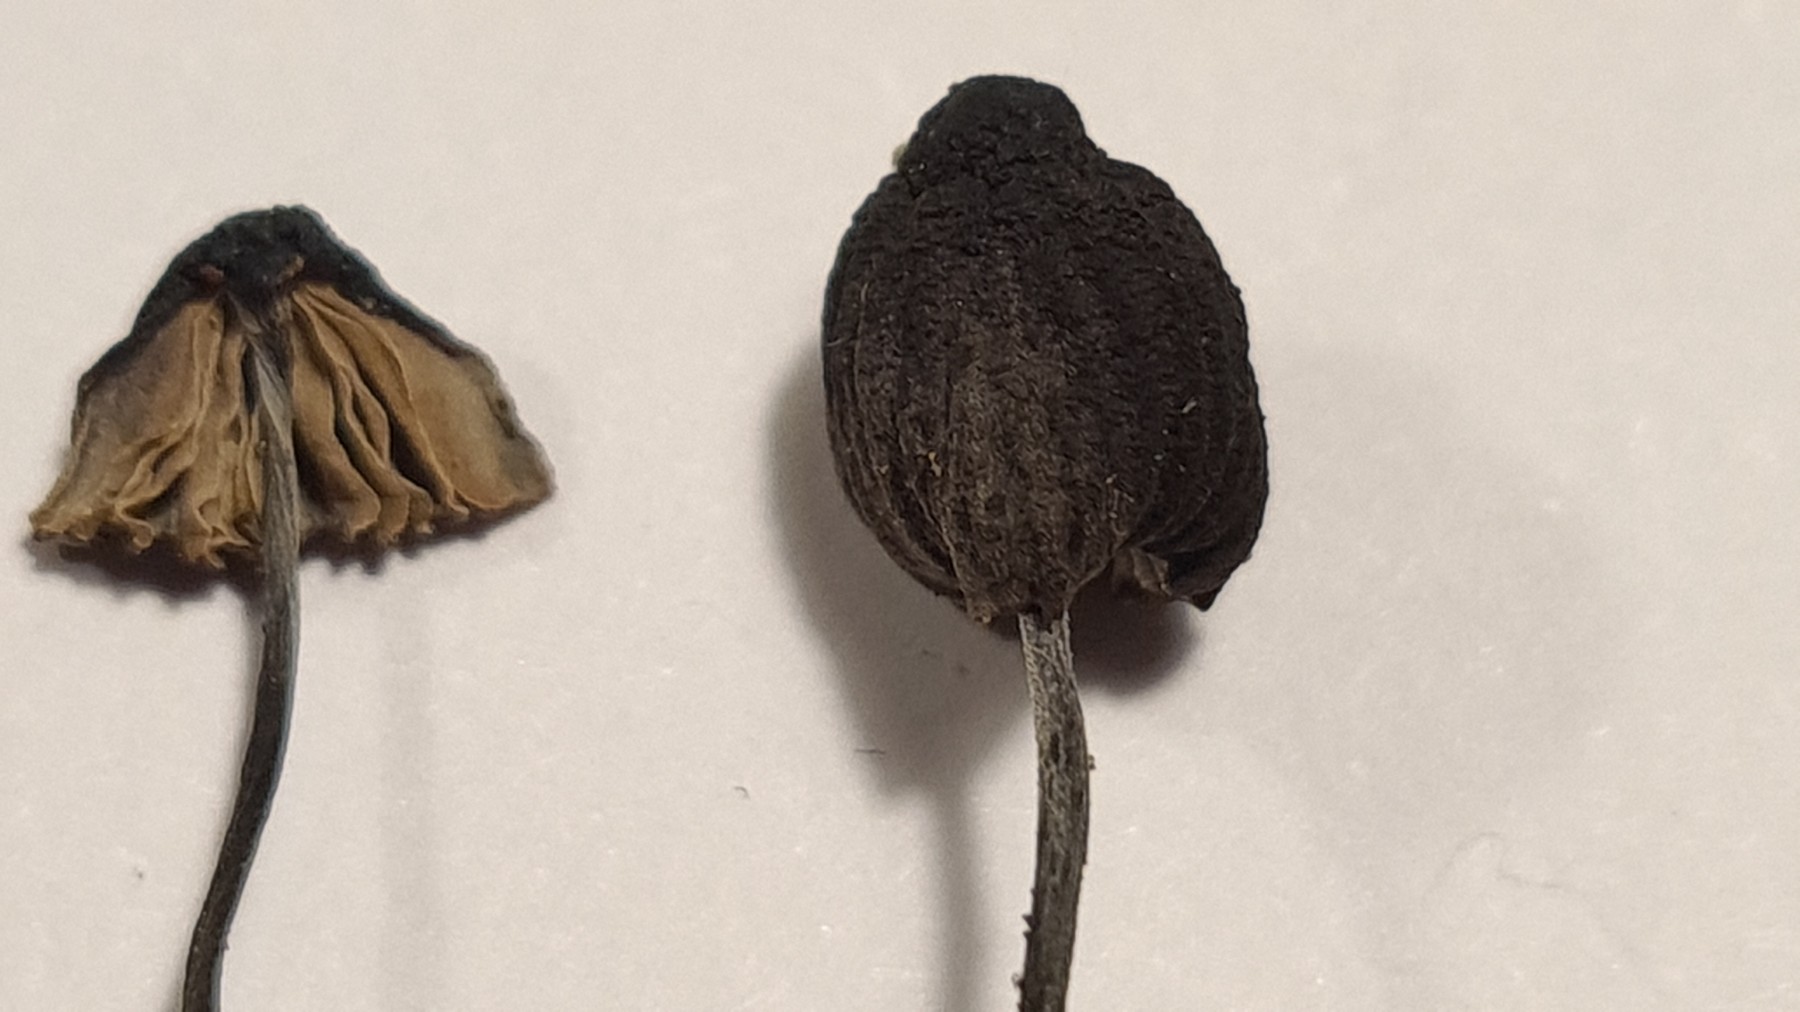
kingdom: Fungi
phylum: Basidiomycota
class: Agaricomycetes
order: Agaricales
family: Mycenaceae
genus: Mycena
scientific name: Mycena galopus
